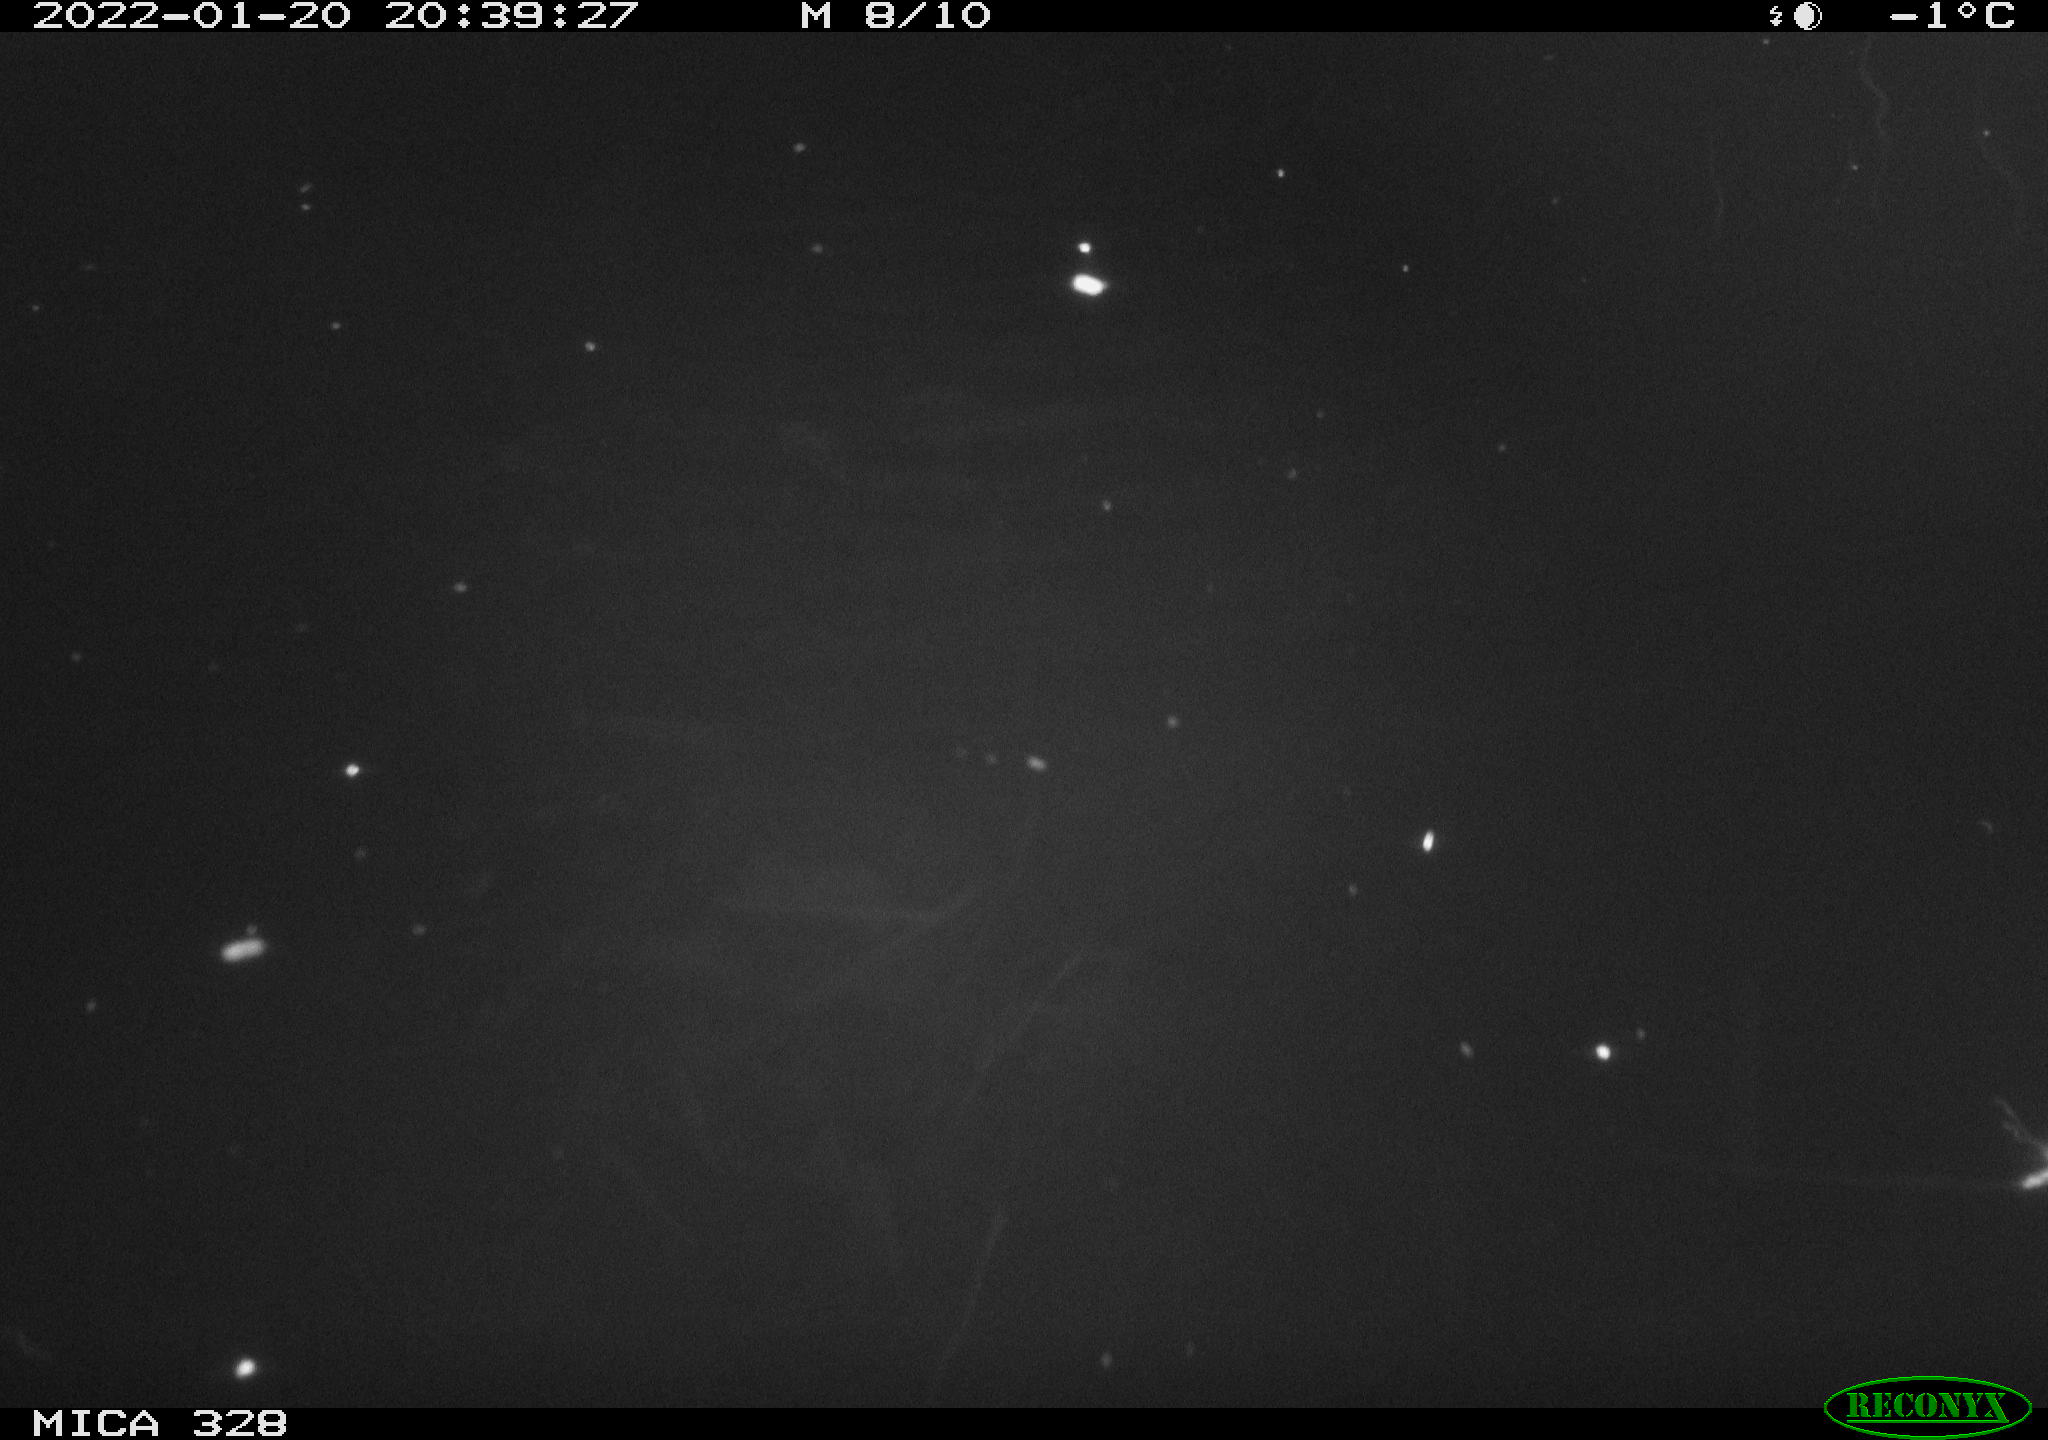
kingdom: Animalia
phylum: Chordata
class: Mammalia
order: Rodentia
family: Cricetidae
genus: Ondatra
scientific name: Ondatra zibethicus
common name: Muskrat
